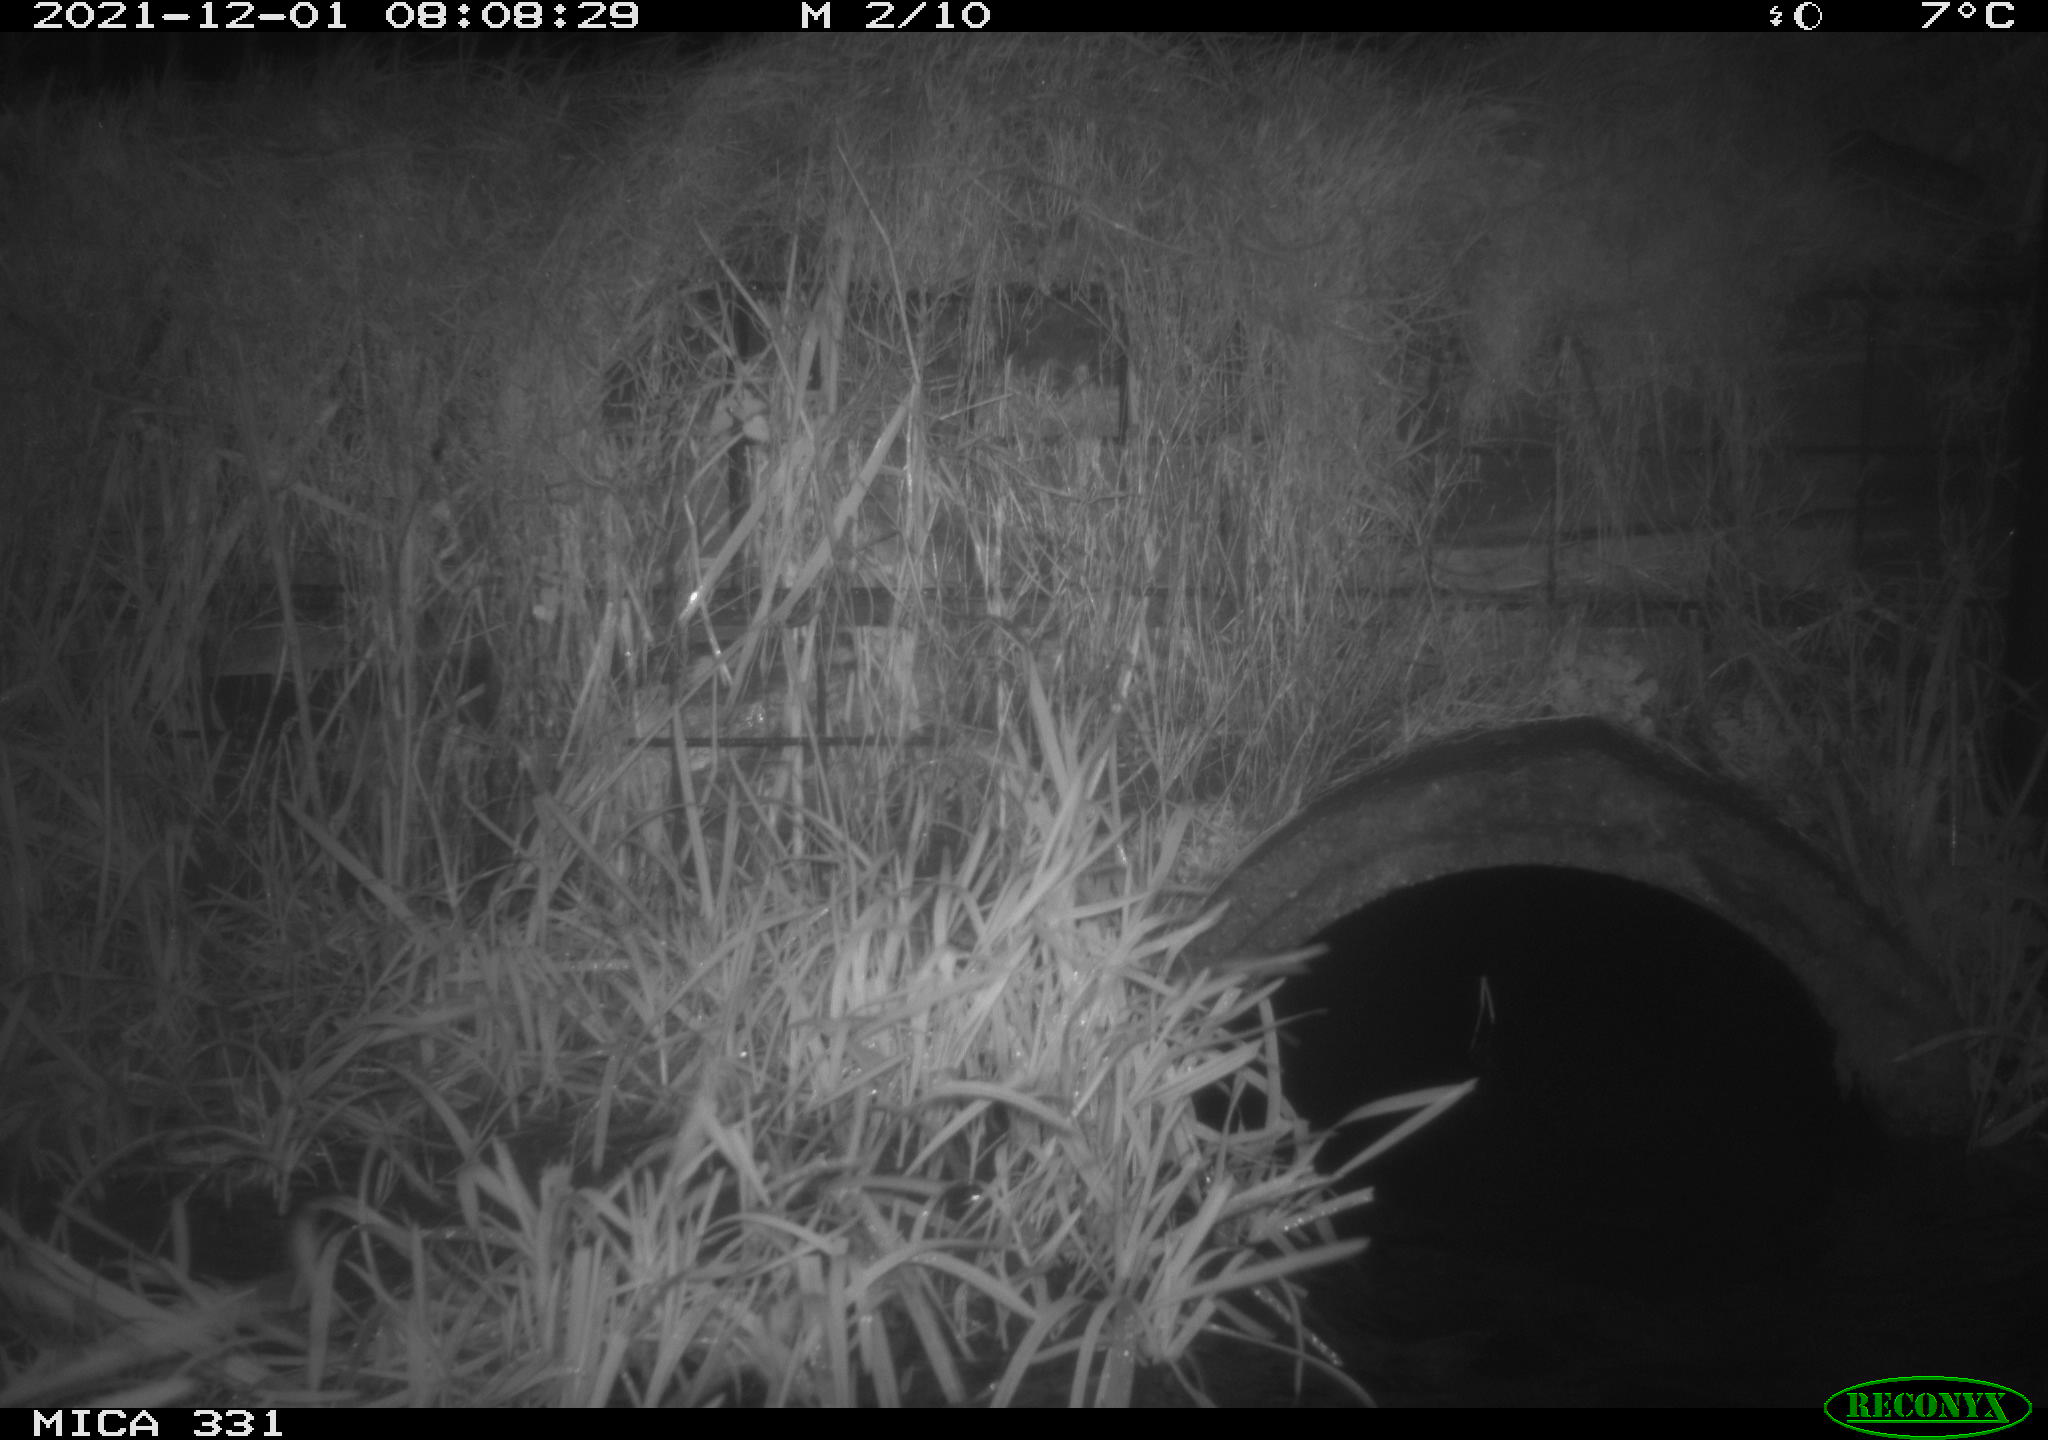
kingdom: Animalia
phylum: Chordata
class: Mammalia
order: Rodentia
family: Muridae
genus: Rattus
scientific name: Rattus norvegicus
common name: Brown rat
